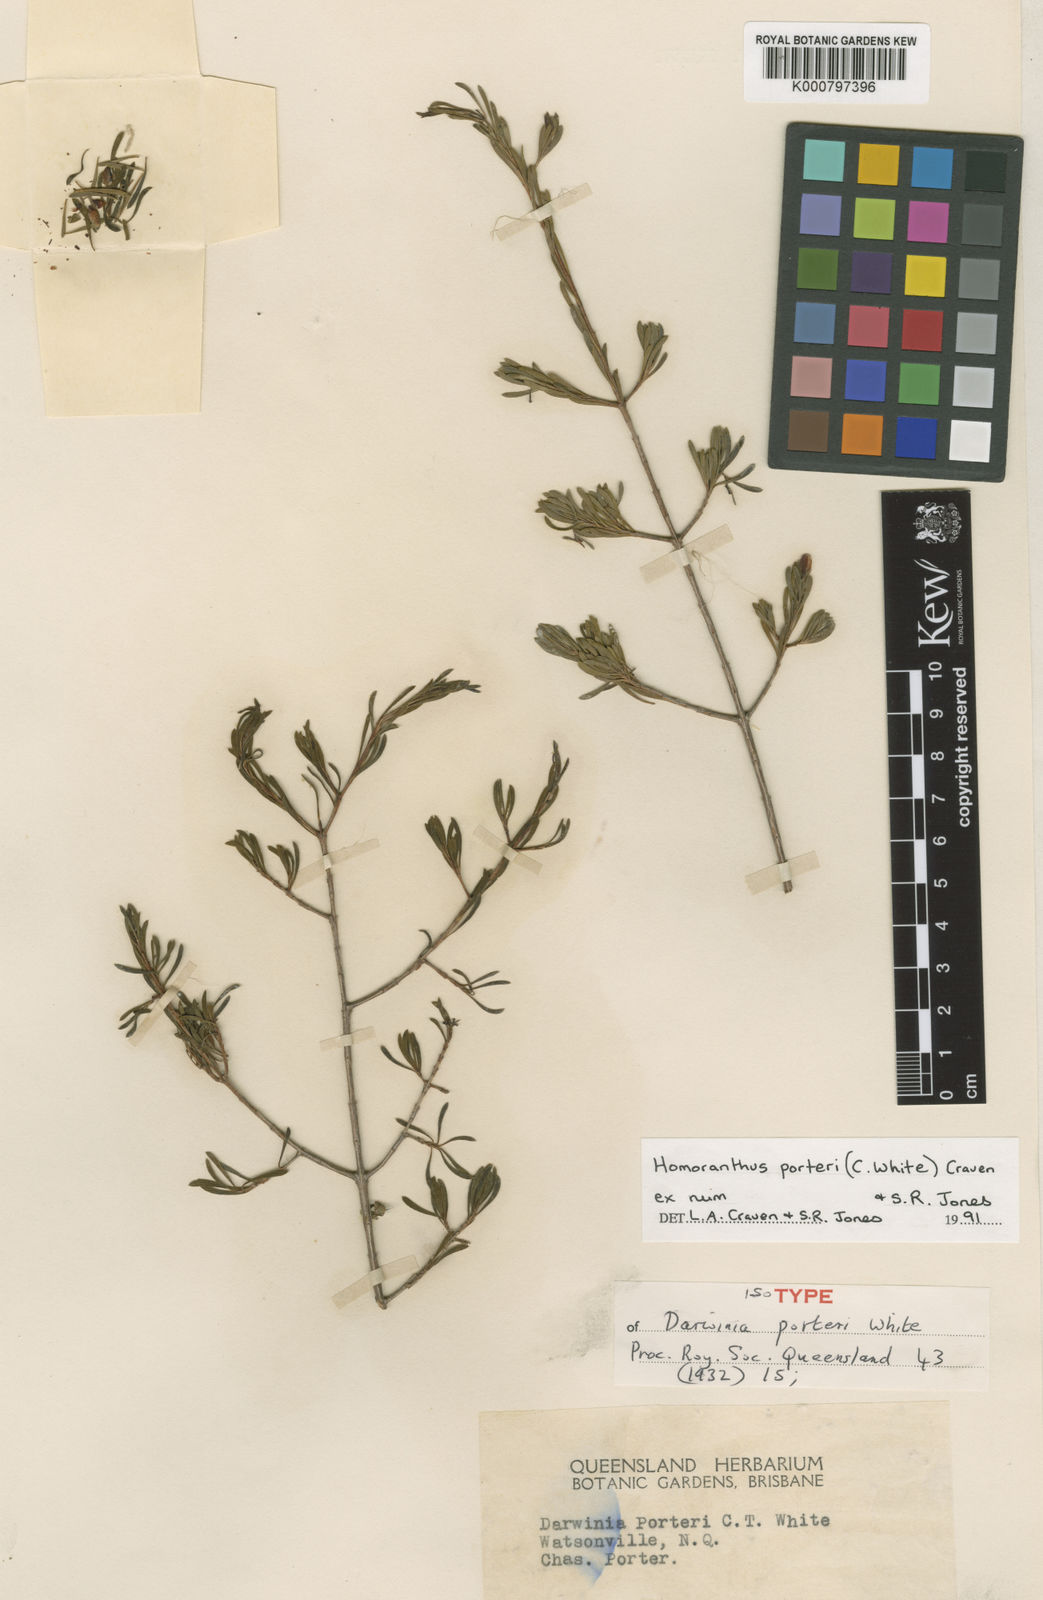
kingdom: Plantae
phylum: Tracheophyta
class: Magnoliopsida
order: Myrtales
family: Myrtaceae
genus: Homoranthus
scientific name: Homoranthus porteri
